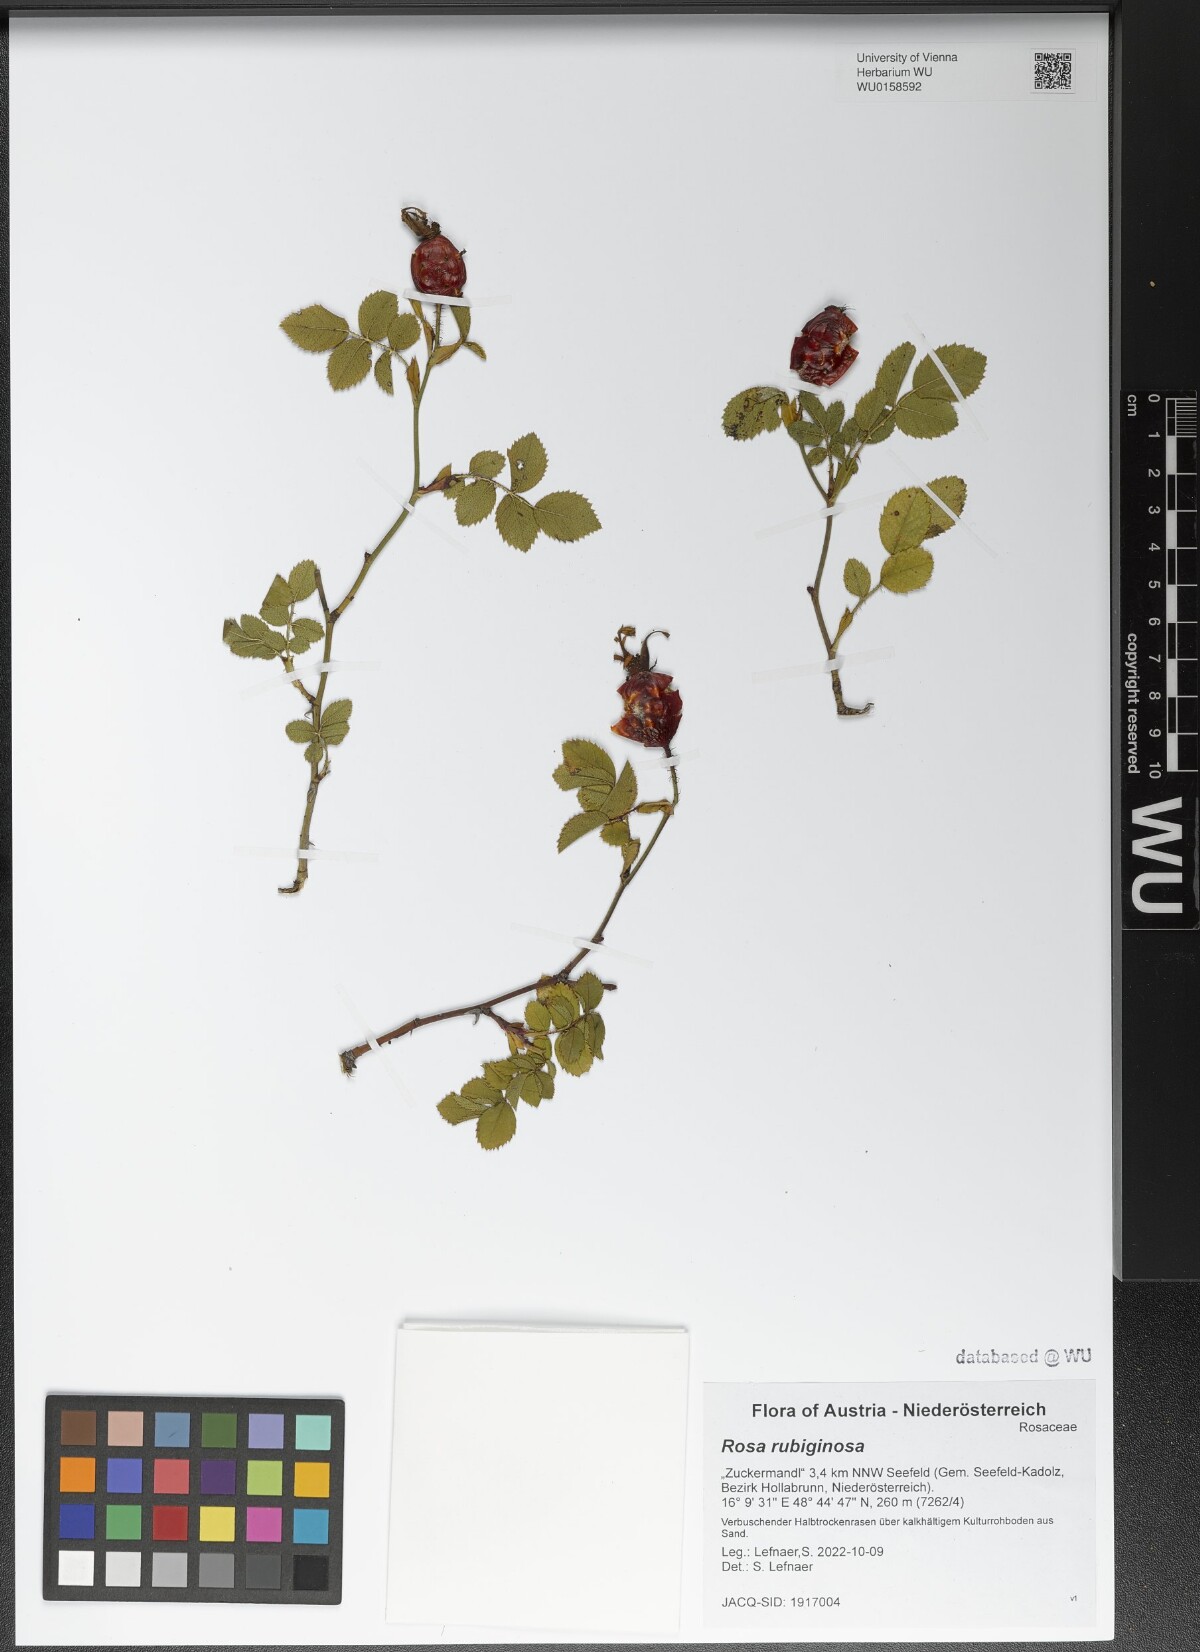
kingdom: Plantae
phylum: Tracheophyta
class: Magnoliopsida
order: Rosales
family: Rosaceae
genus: Rosa
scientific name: Rosa rubiginosa
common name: Sweet-briar
